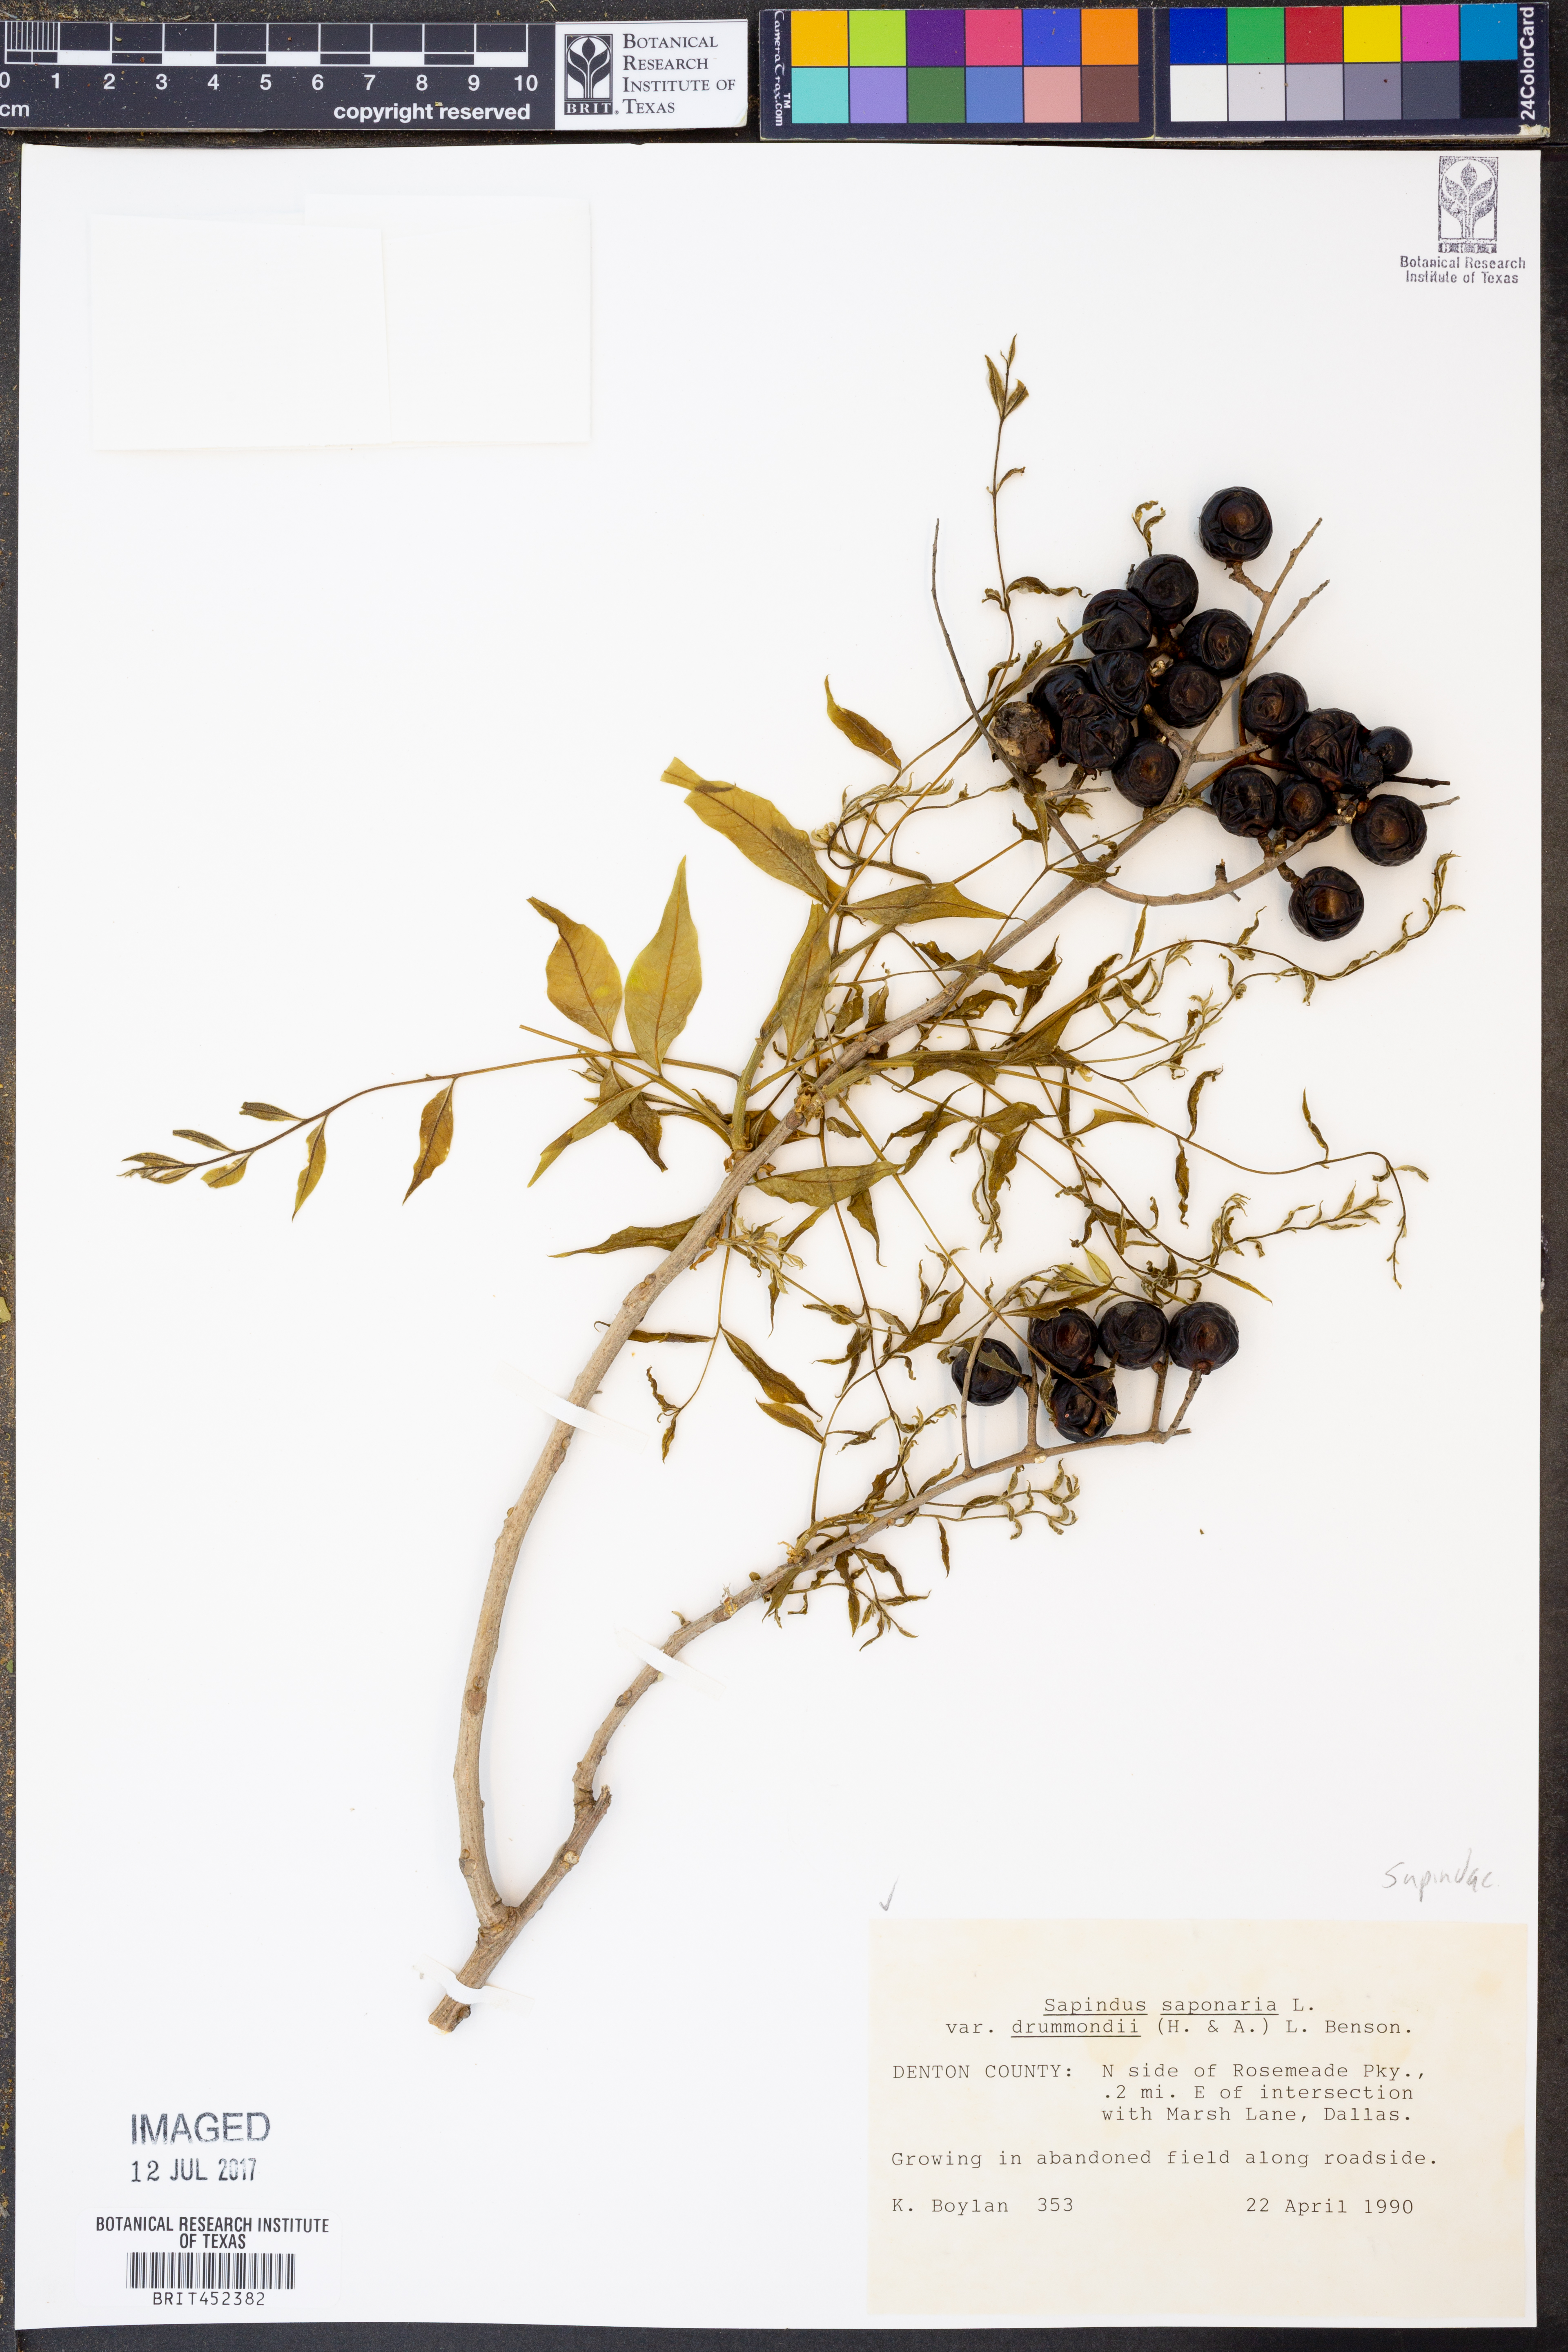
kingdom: Plantae
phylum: Tracheophyta
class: Magnoliopsida
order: Sapindales
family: Sapindaceae
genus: Sapindus
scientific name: Sapindus drummondii
